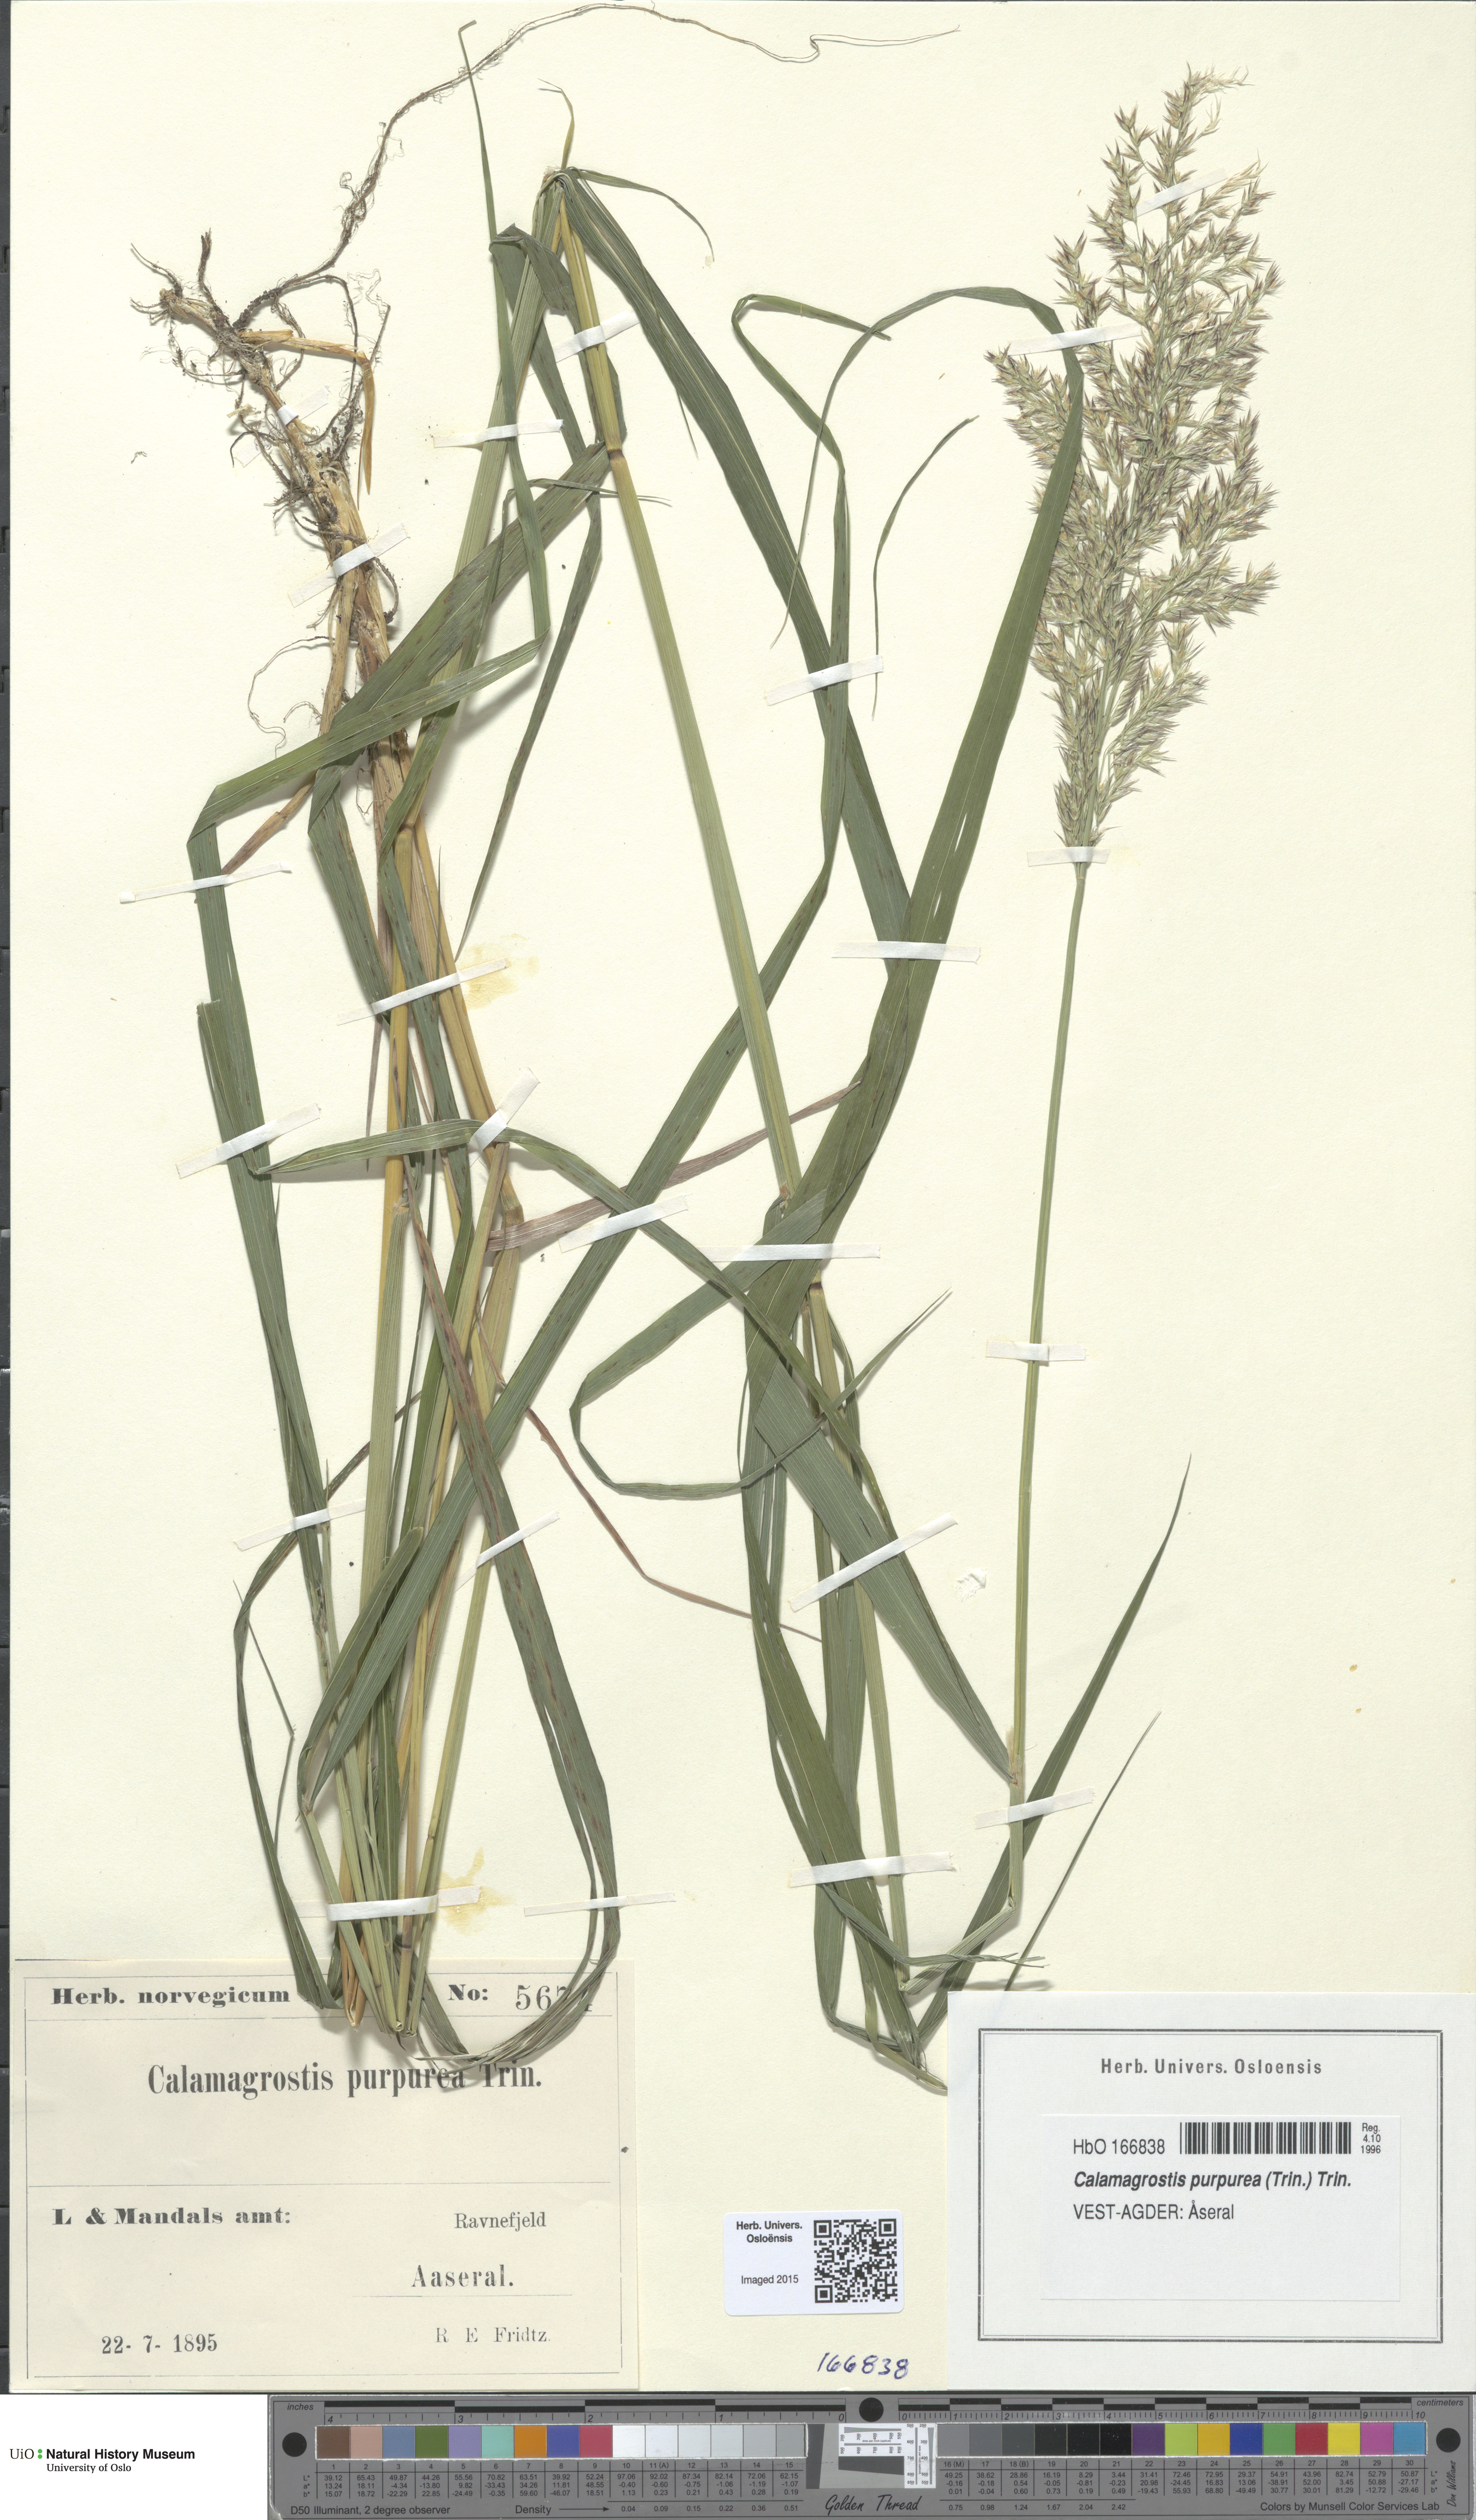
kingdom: Plantae
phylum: Tracheophyta
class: Liliopsida
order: Poales
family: Poaceae
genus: Calamagrostis
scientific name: Calamagrostis purpurea
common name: Scandinavian small-reed
